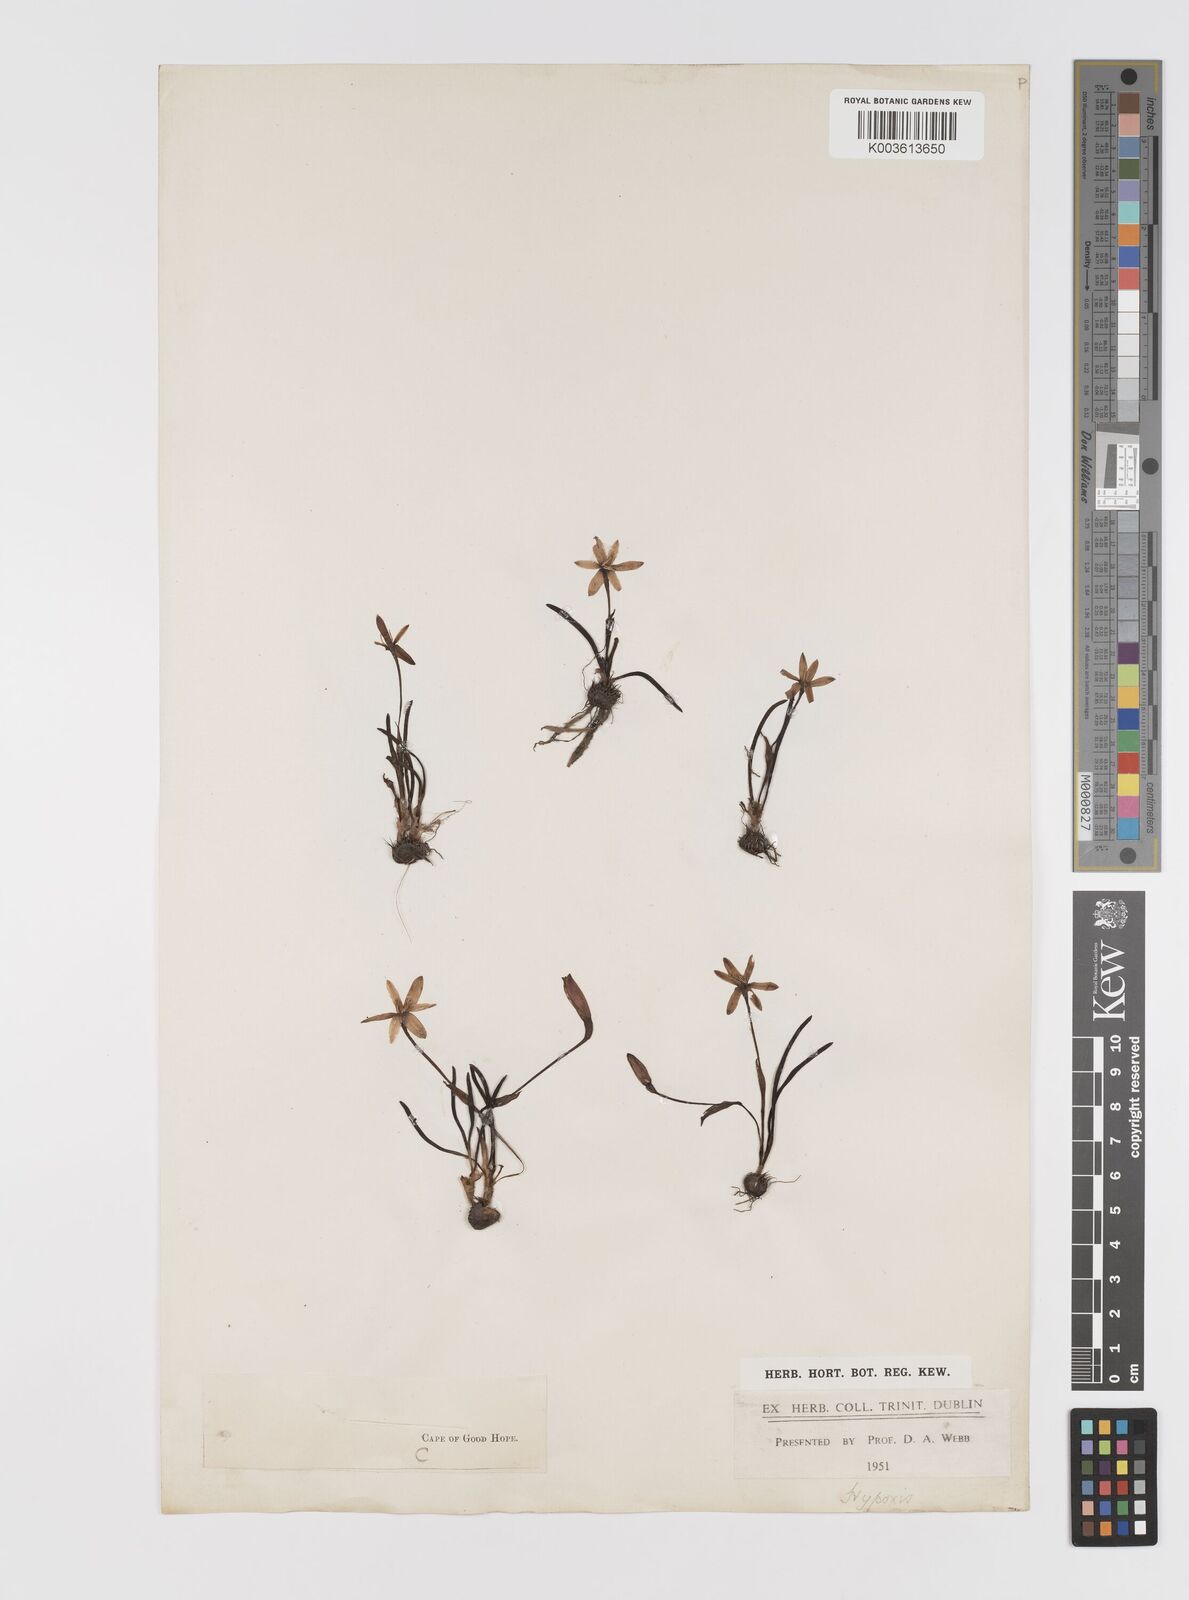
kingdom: Plantae
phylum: Tracheophyta
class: Liliopsida
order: Asparagales
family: Hypoxidaceae
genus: Pauridia
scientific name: Pauridia
